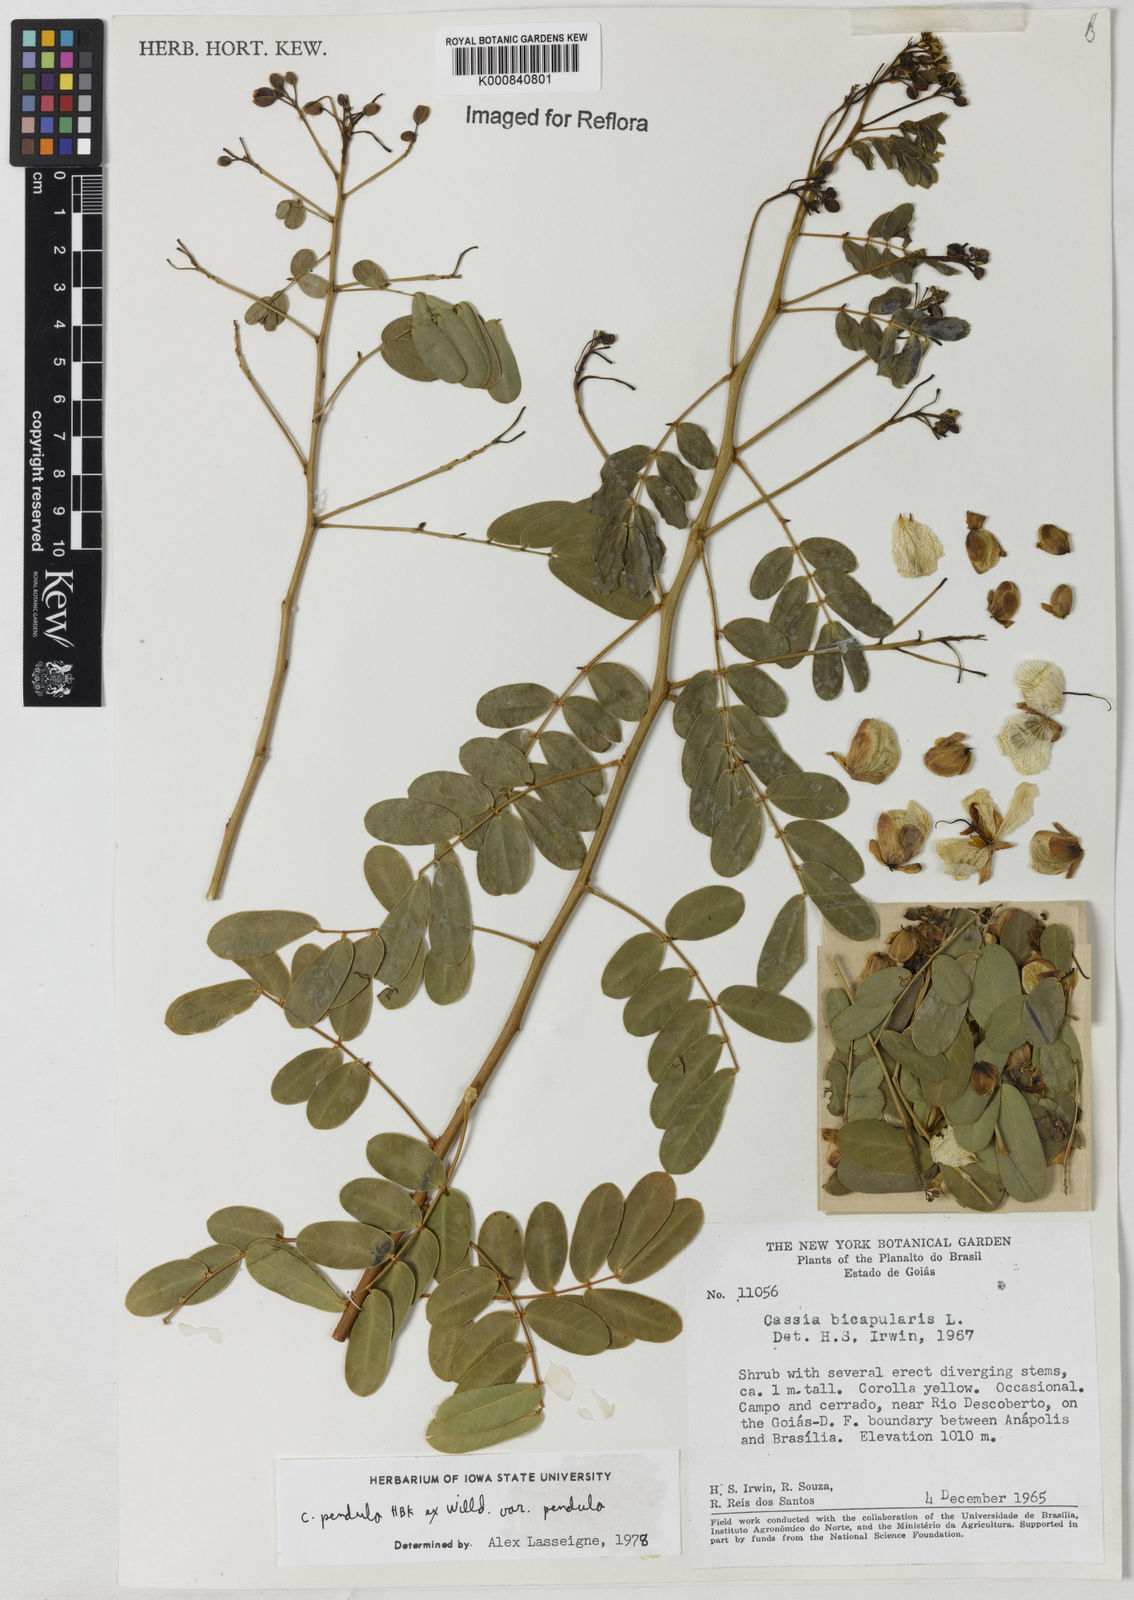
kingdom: Plantae
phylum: Tracheophyta
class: Magnoliopsida
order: Fabales
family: Fabaceae
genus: Senna
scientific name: Senna pendula
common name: Easter cassia
